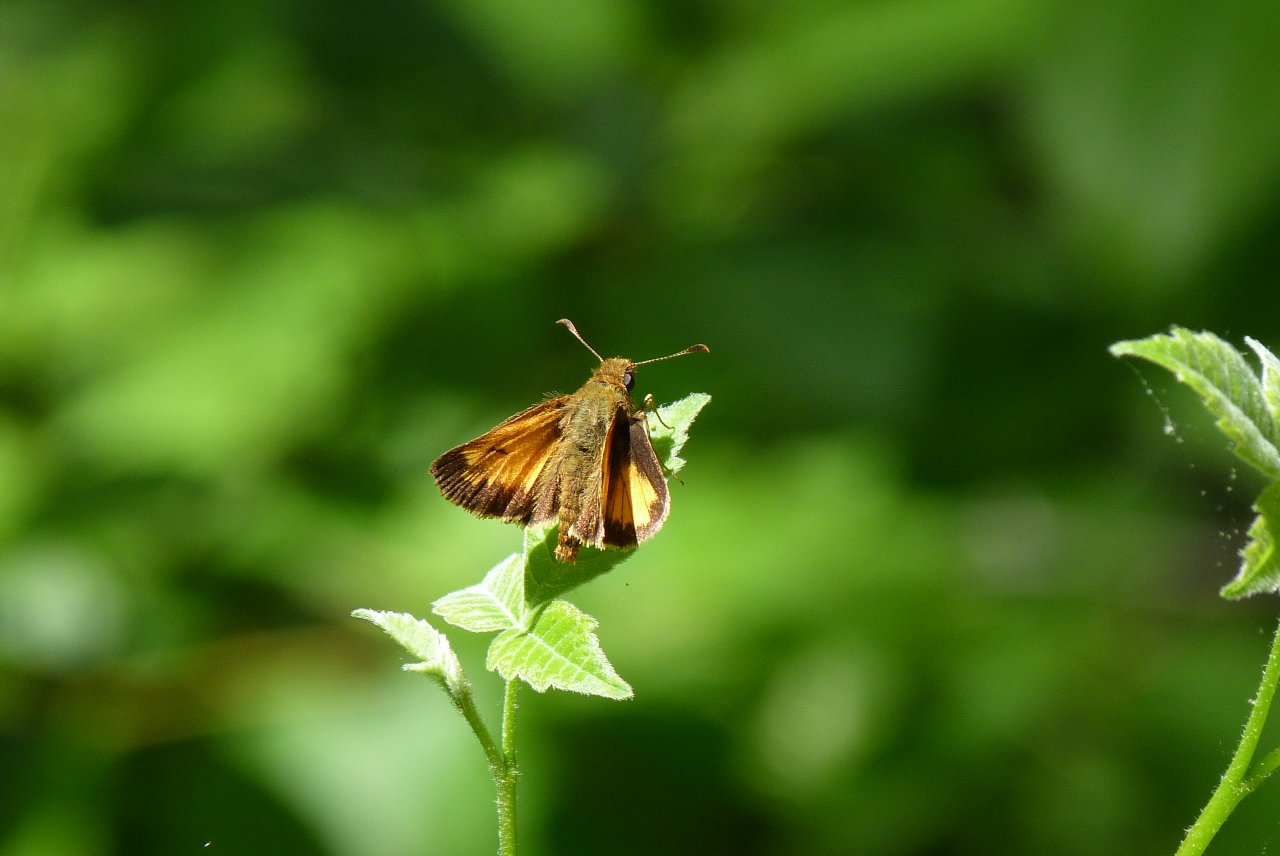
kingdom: Animalia
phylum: Arthropoda
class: Insecta
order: Lepidoptera
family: Hesperiidae
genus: Lon
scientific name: Lon hobomok
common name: Hobomok Skipper
